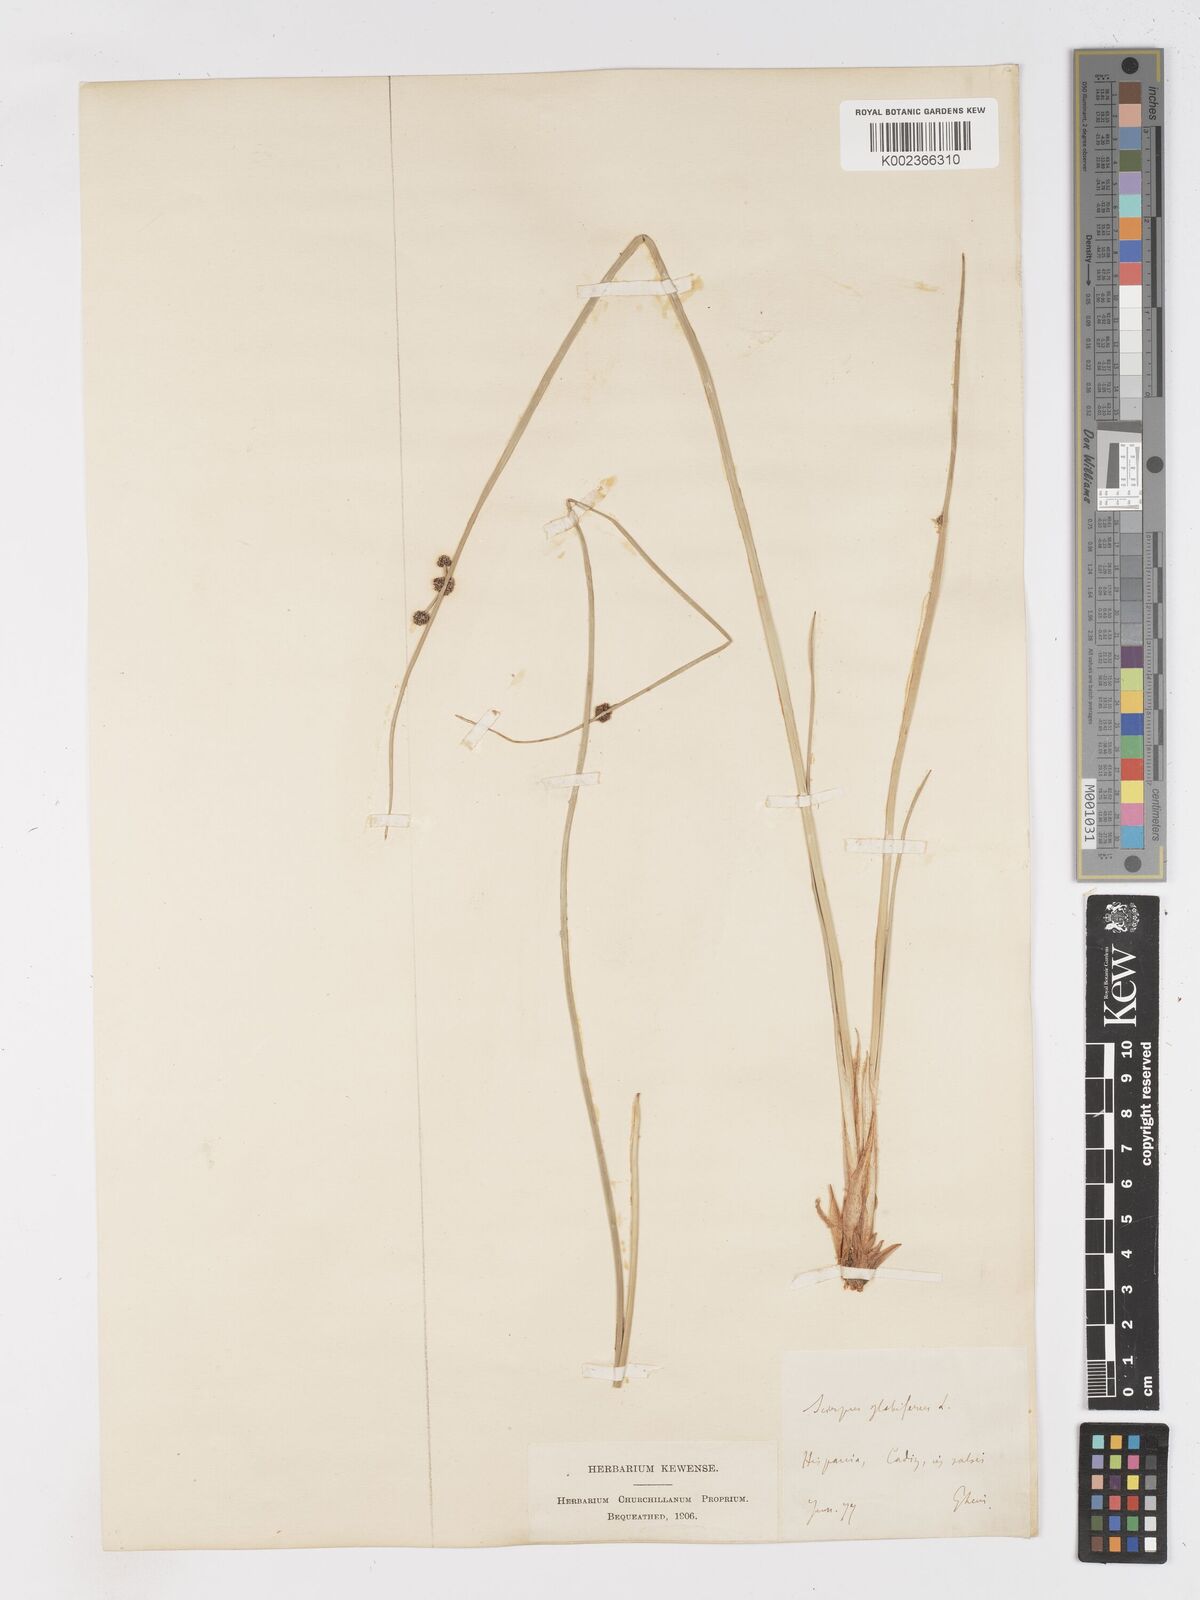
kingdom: Plantae
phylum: Tracheophyta
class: Liliopsida
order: Poales
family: Cyperaceae
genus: Scirpoides
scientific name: Scirpoides holoschoenus
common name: Round-headed club-rush
